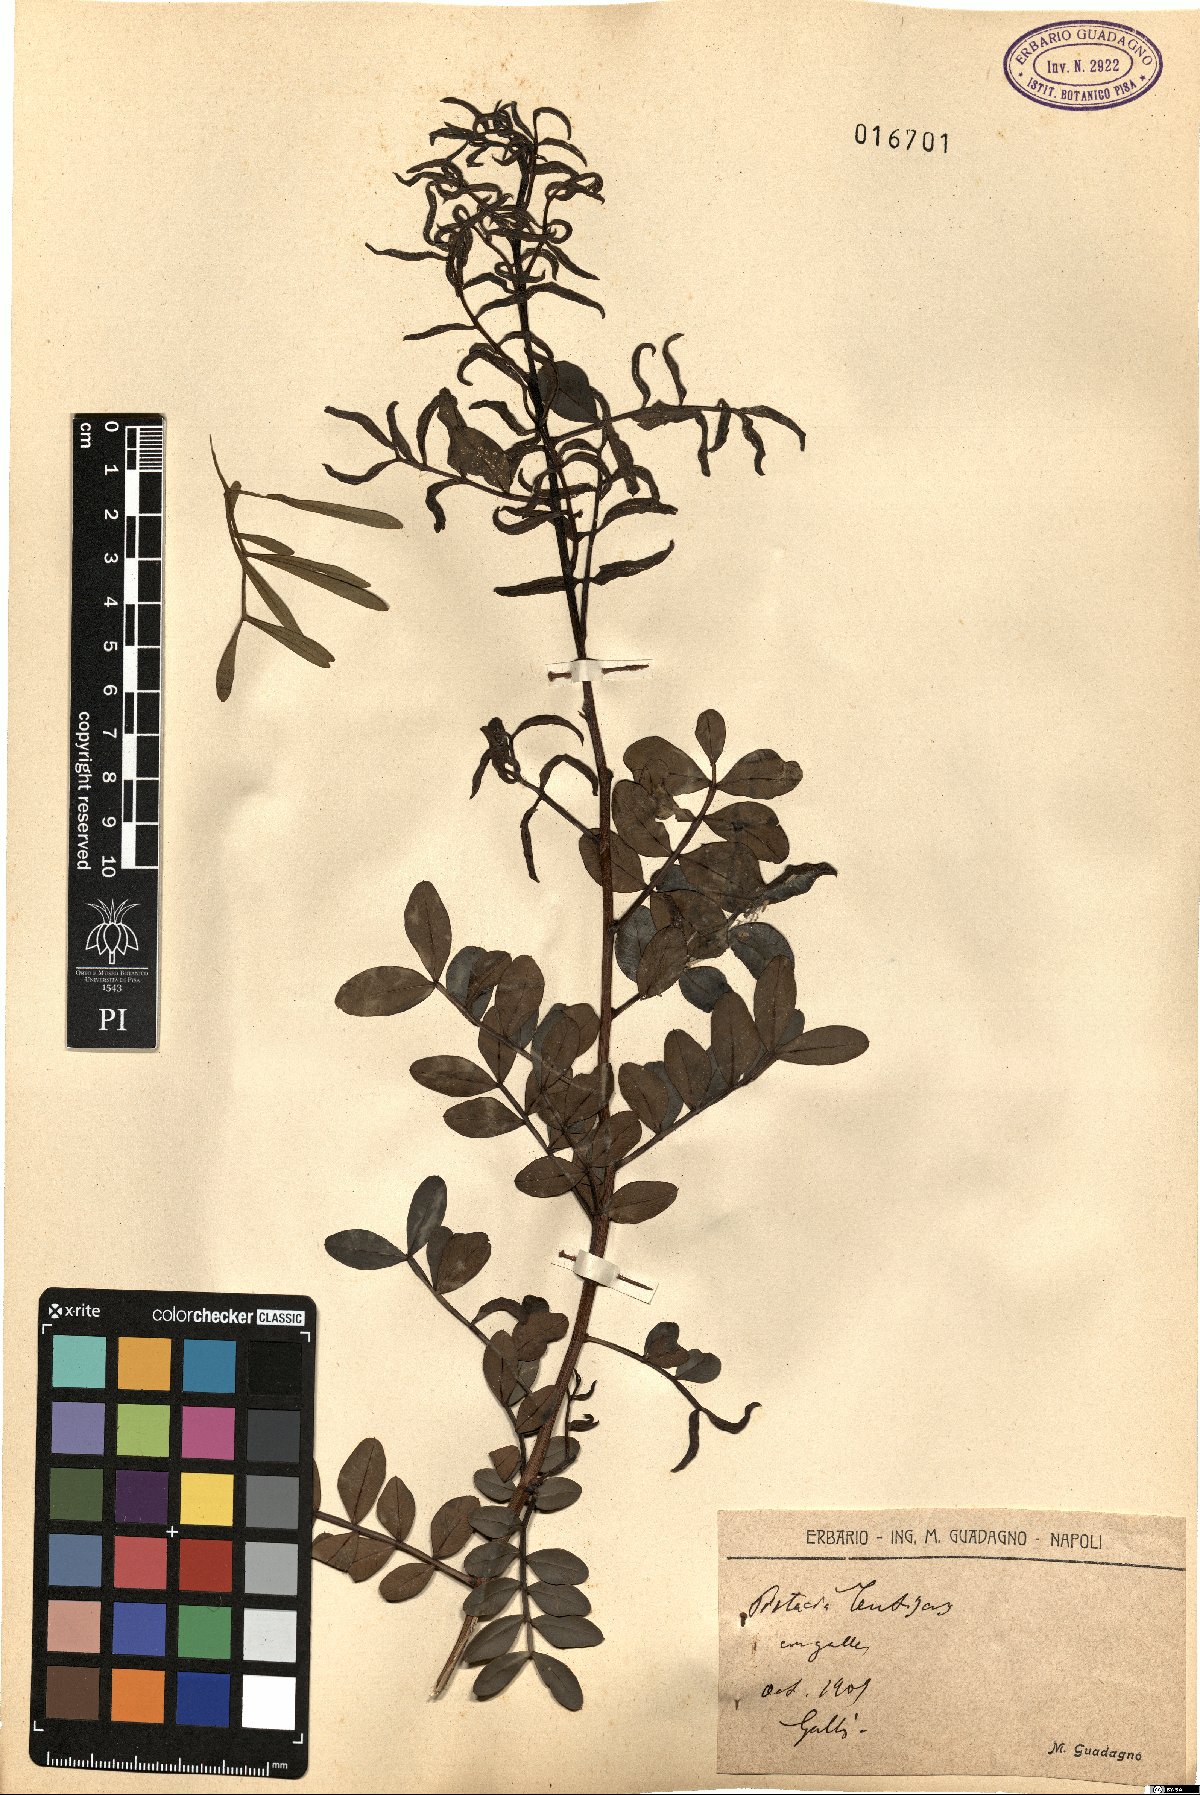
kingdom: Plantae
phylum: Tracheophyta
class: Magnoliopsida
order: Sapindales
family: Anacardiaceae
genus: Pistacia
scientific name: Pistacia lentiscus
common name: Lentisk
